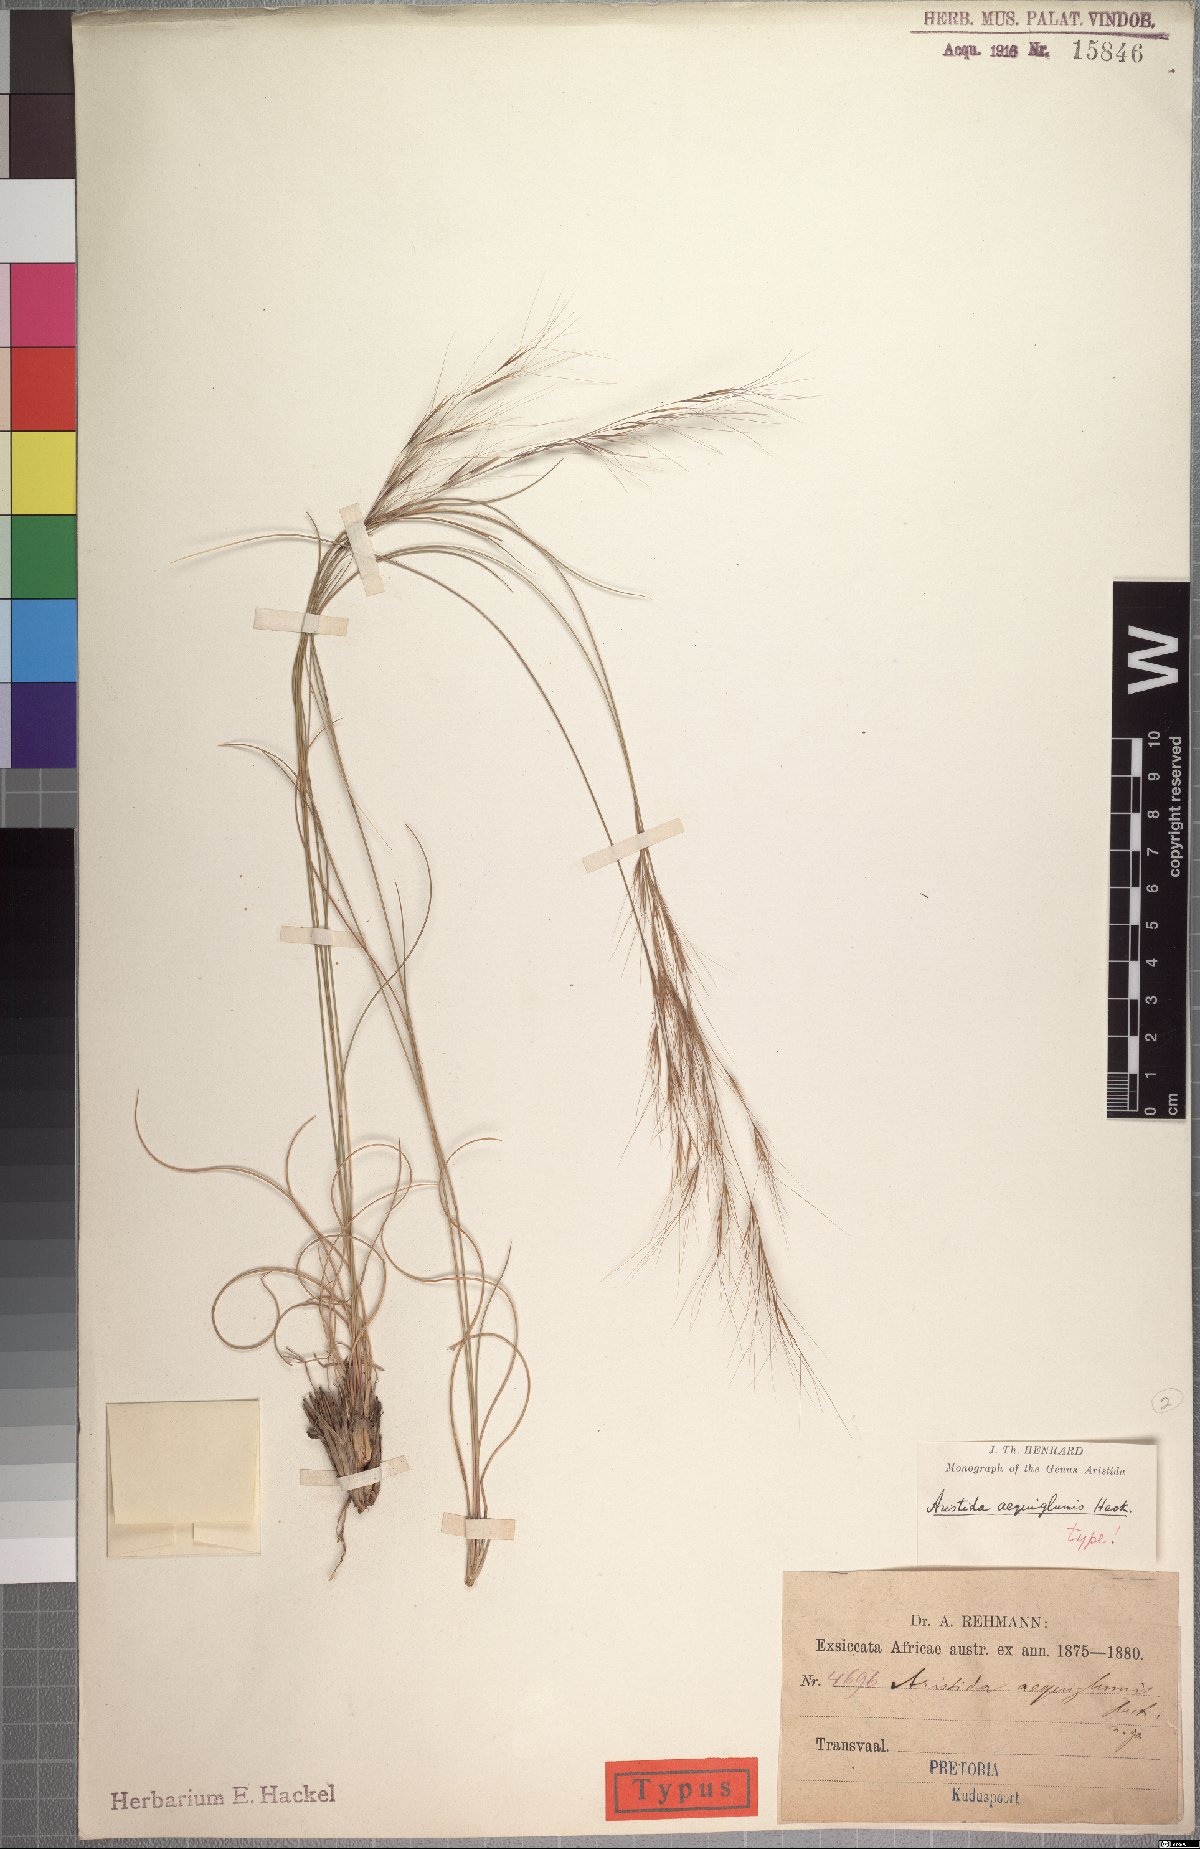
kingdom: Plantae
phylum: Tracheophyta
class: Liliopsida
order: Poales
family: Poaceae
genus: Aristida
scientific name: Aristida aequiglumis
